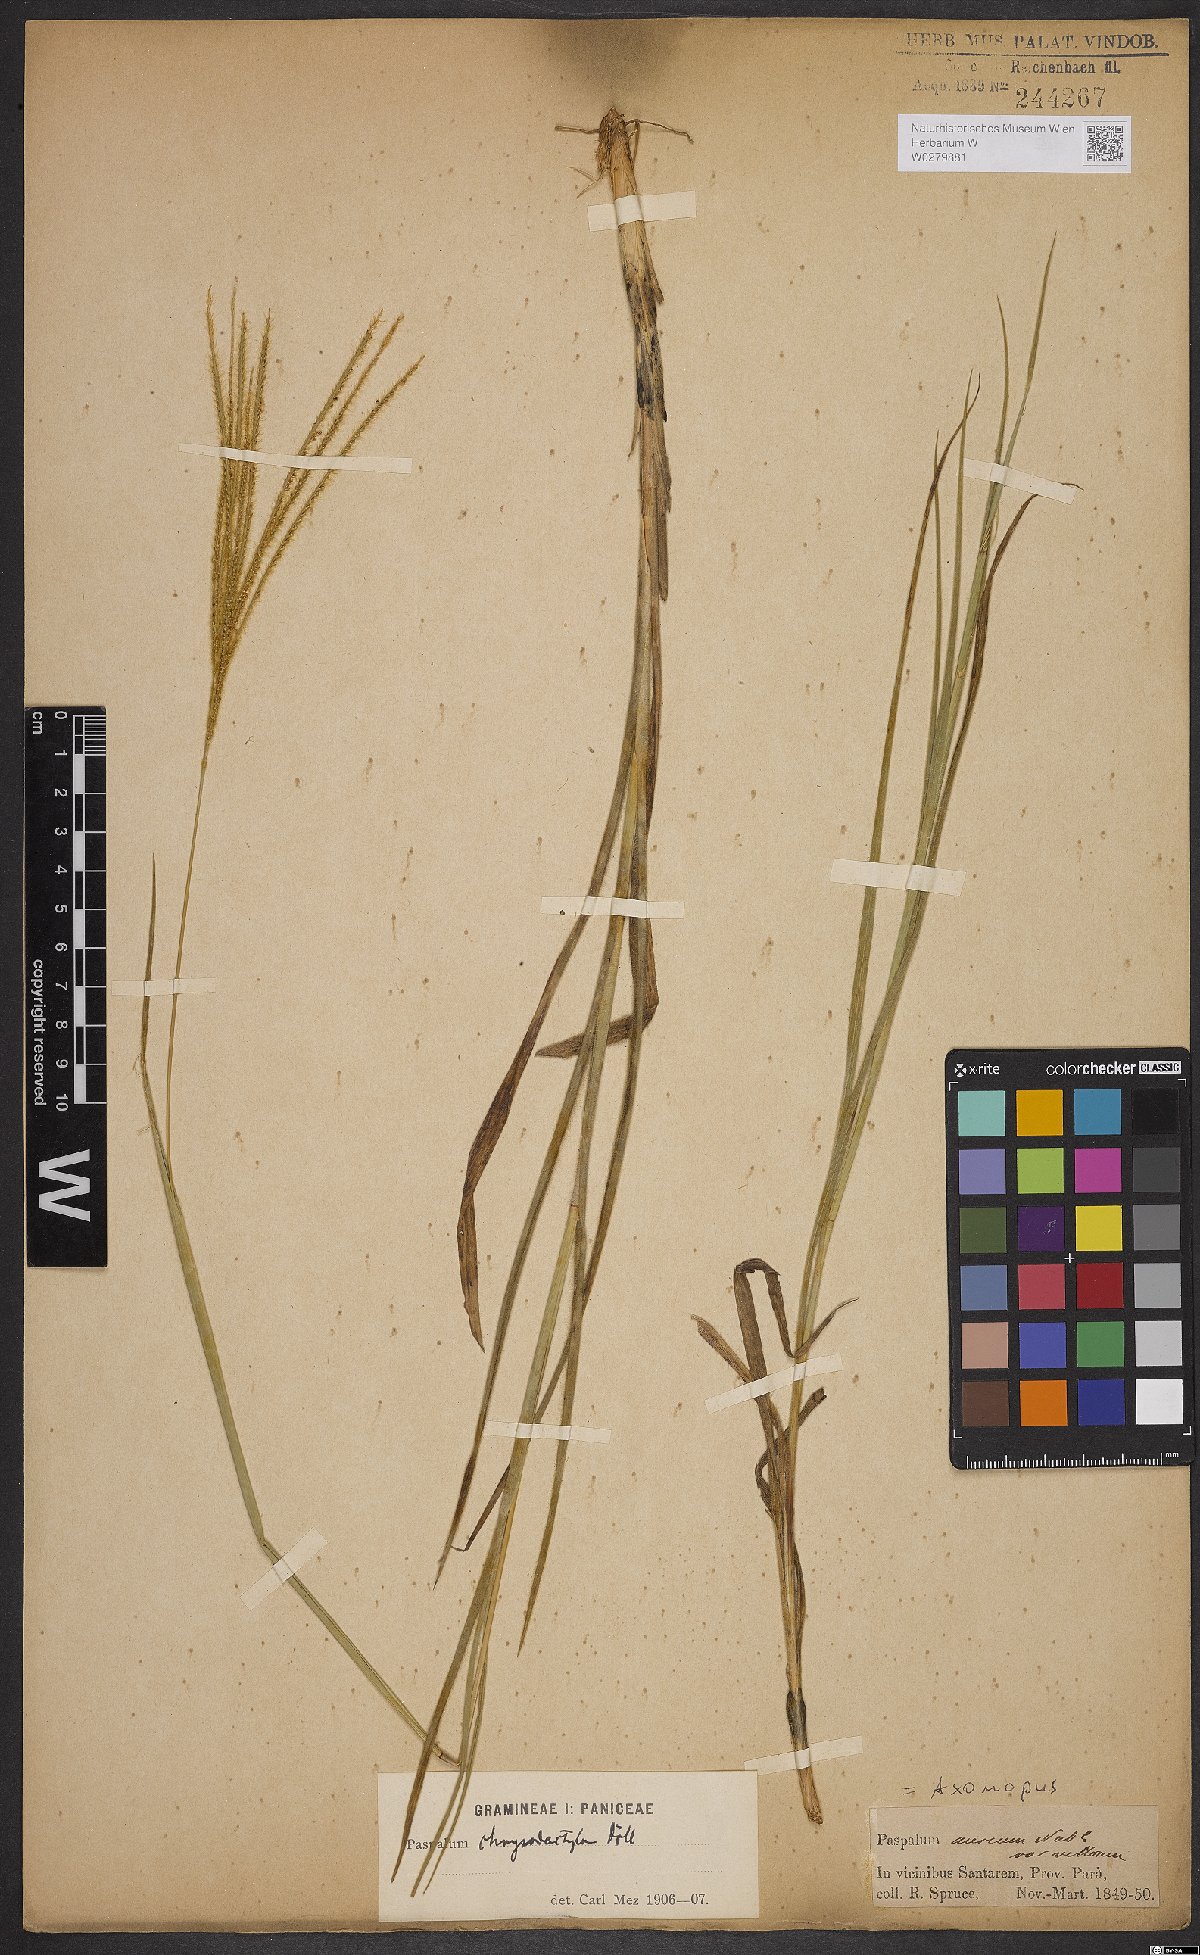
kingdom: Plantae
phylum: Tracheophyta
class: Liliopsida
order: Poales
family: Poaceae
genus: Axonopus
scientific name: Axonopus aureus
